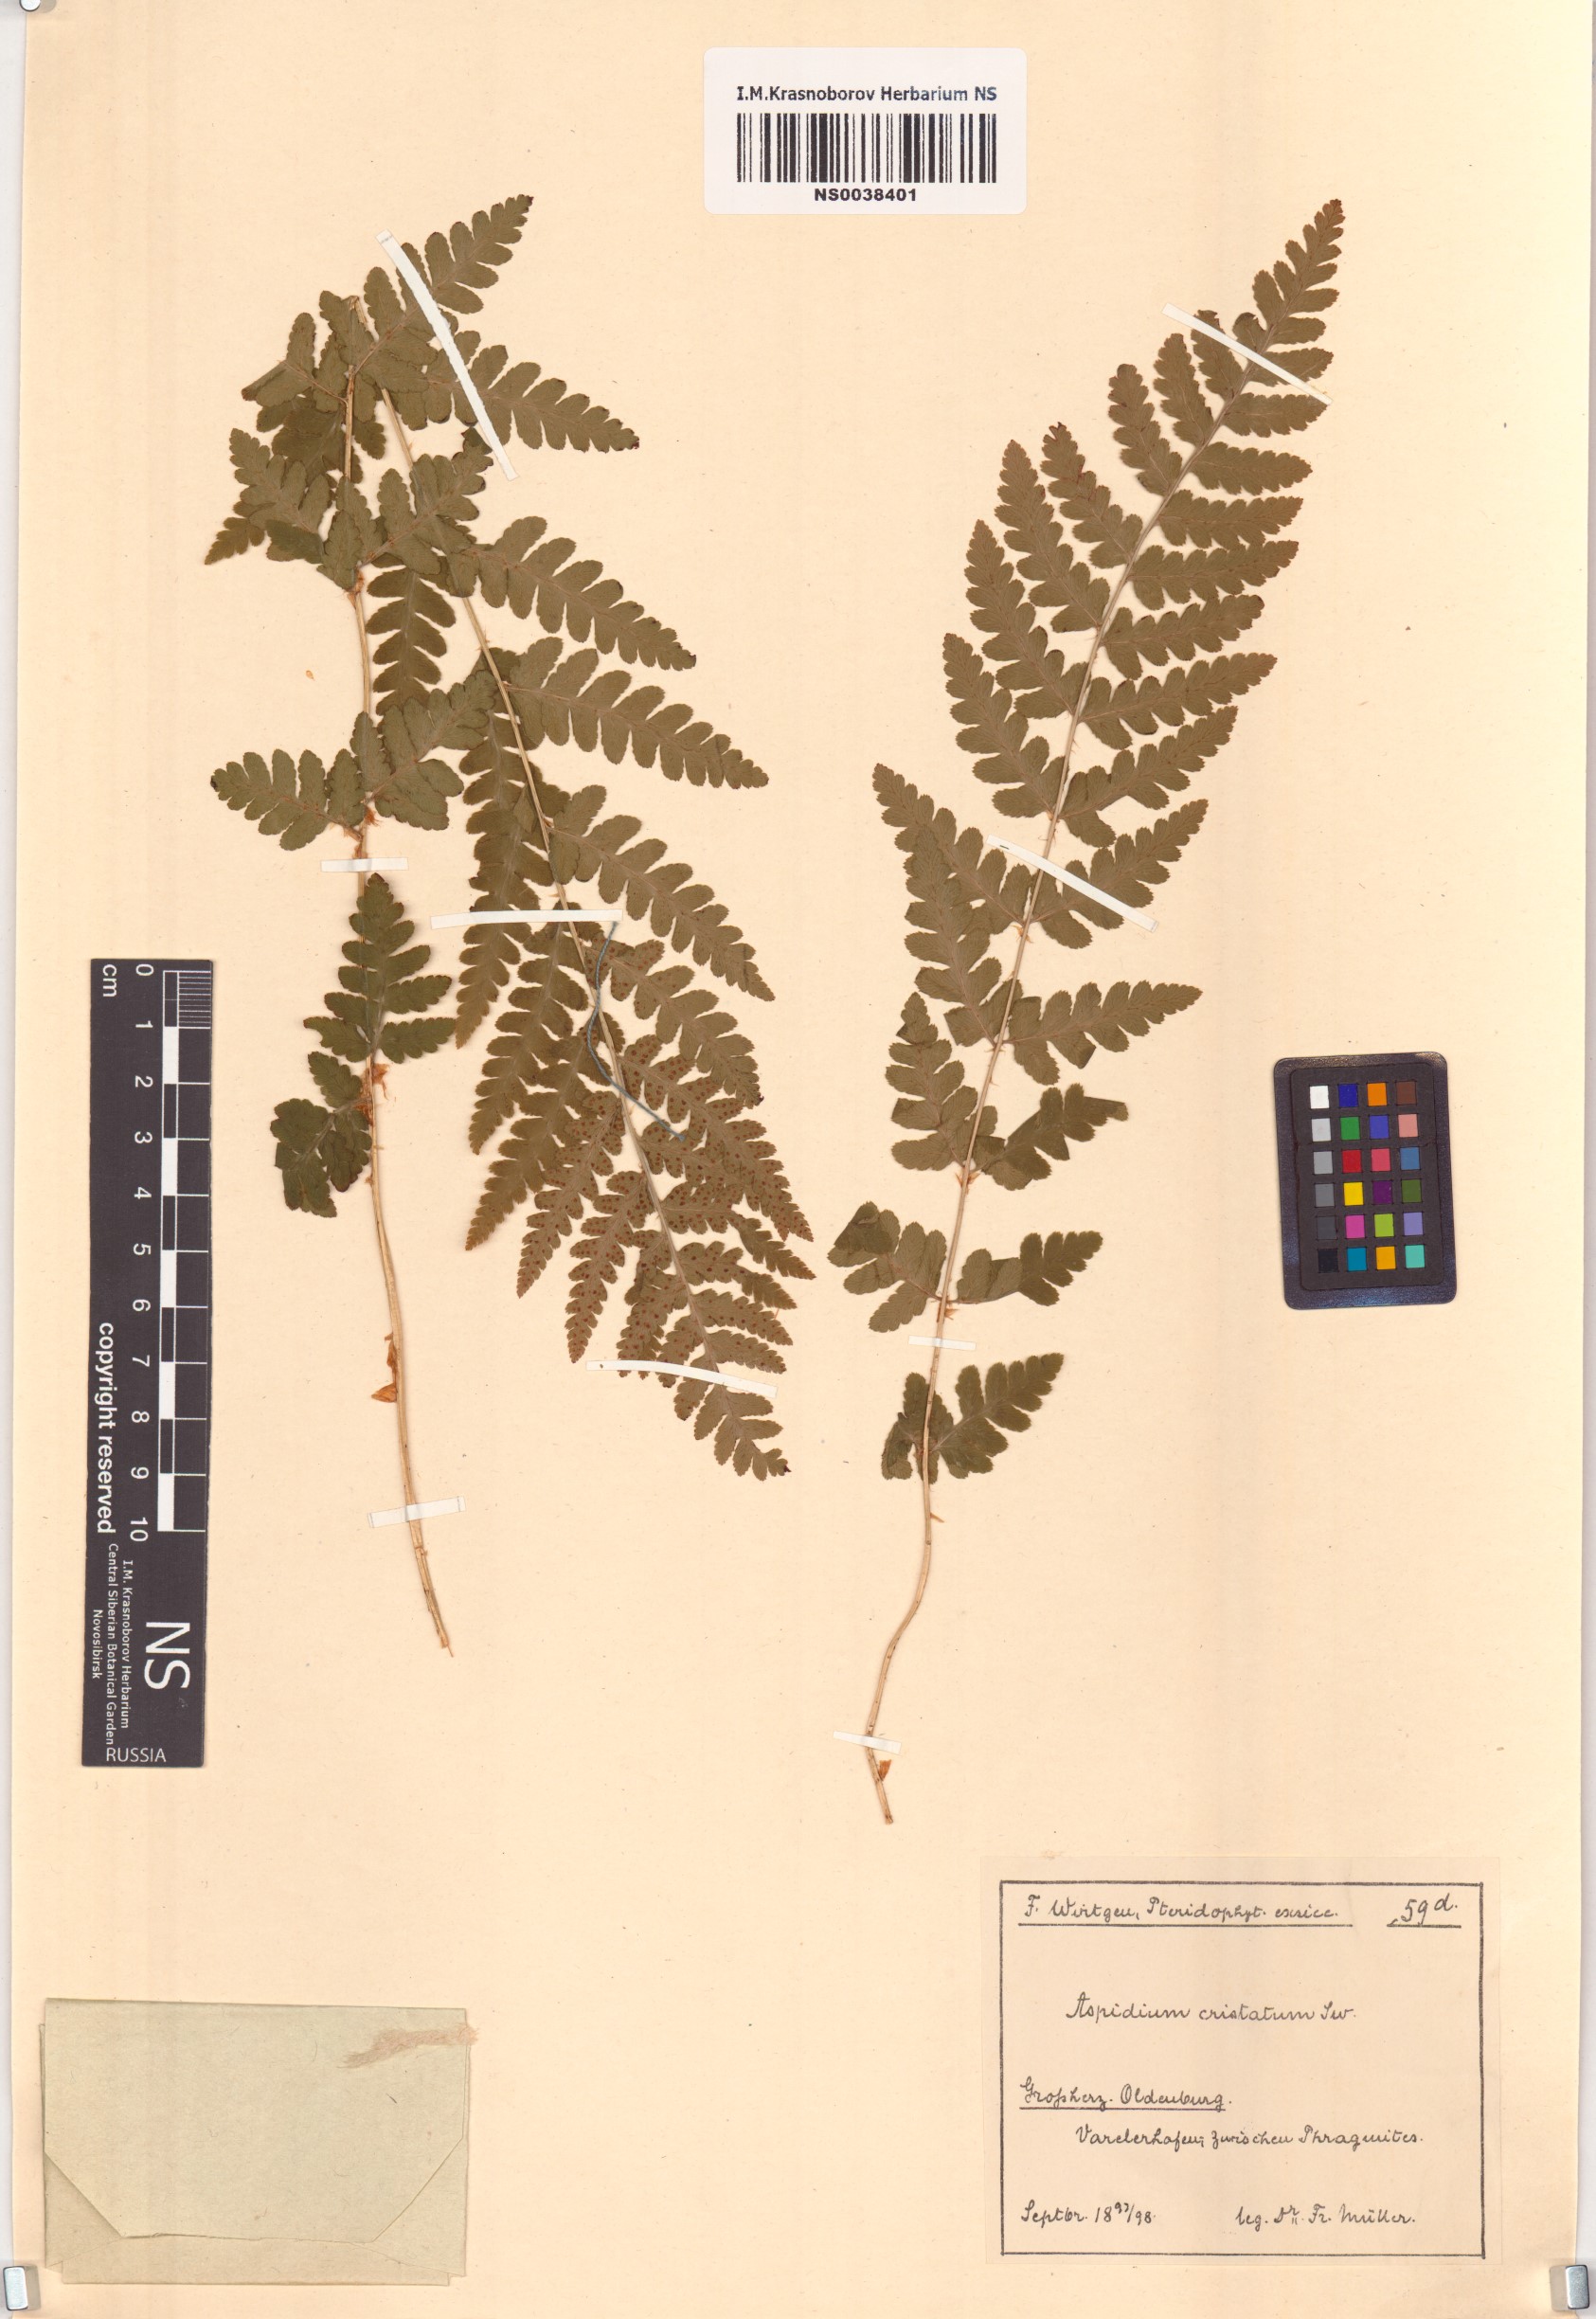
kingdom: Plantae
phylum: Tracheophyta
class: Polypodiopsida
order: Polypodiales
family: Dryopteridaceae
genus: Dryopteris
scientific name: Dryopteris cristata
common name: Crested wood fern
